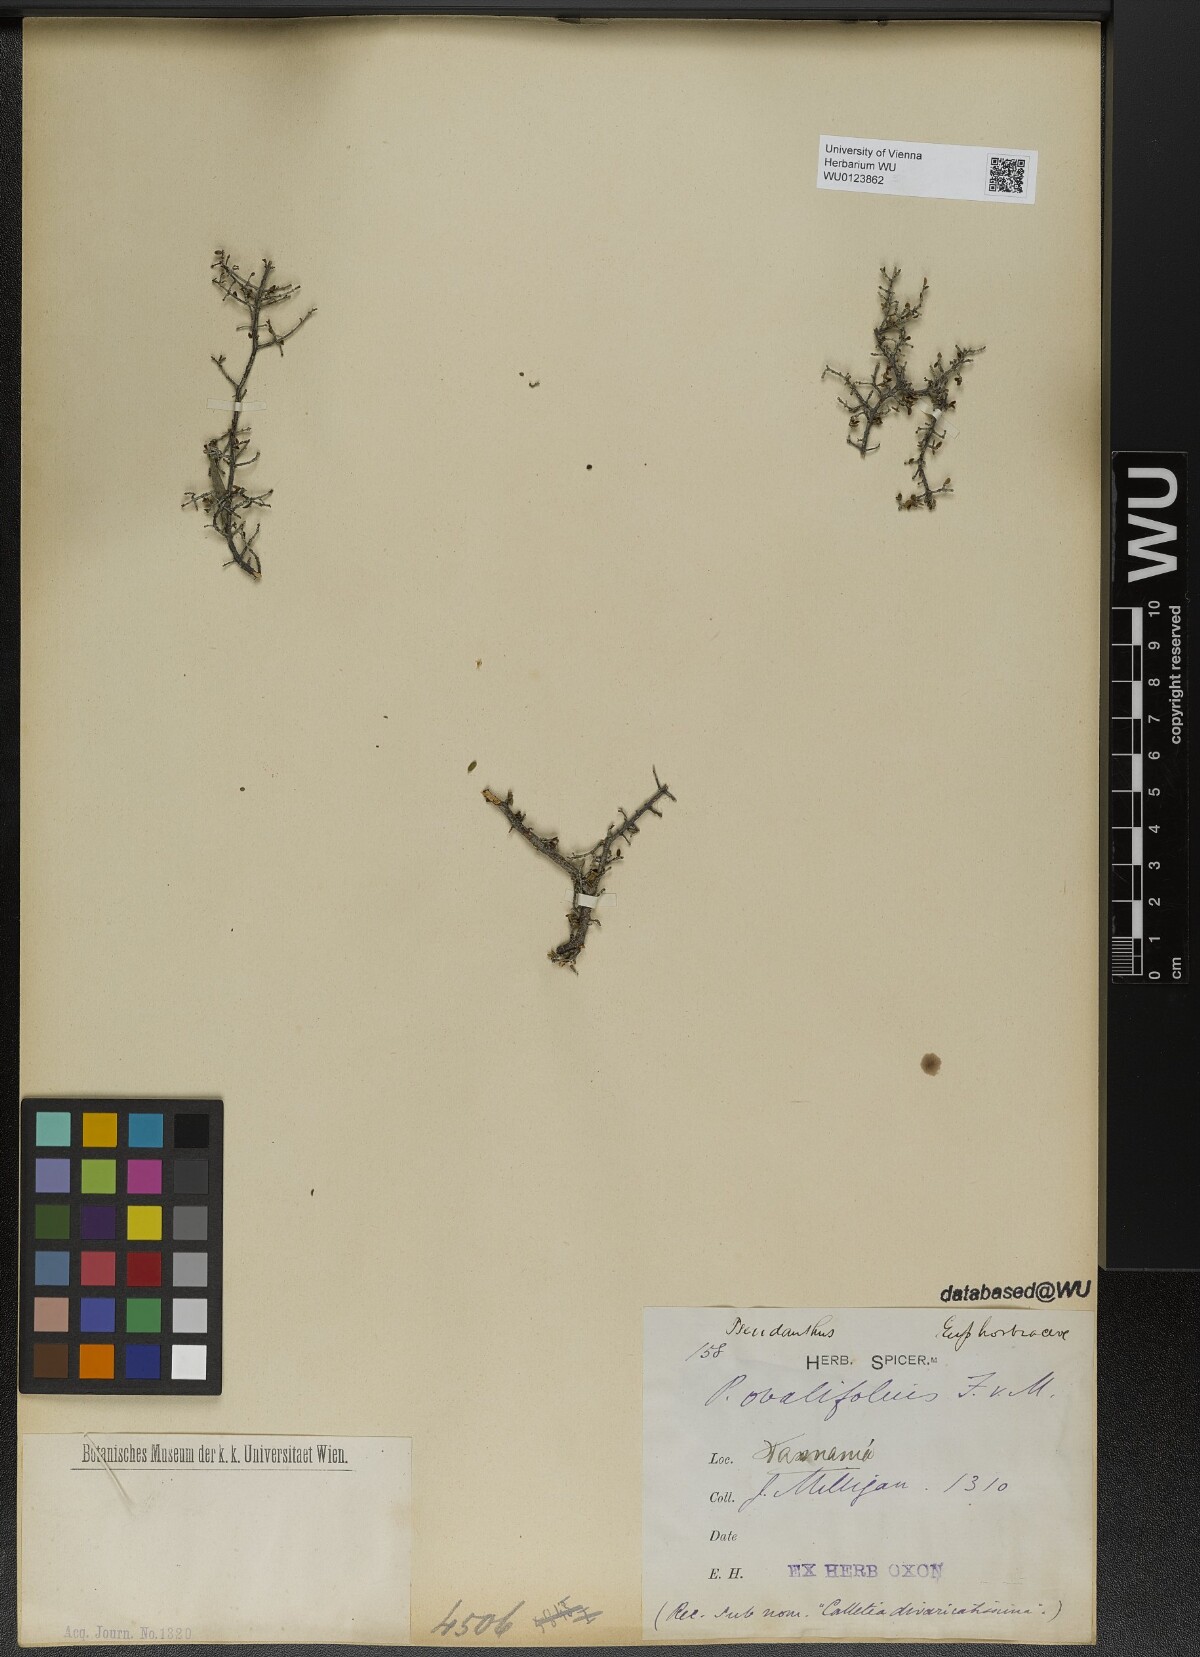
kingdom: Plantae
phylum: Tracheophyta
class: Magnoliopsida
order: Malpighiales
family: Picrodendraceae
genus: Pseudanthus
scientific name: Pseudanthus ovalifolius
